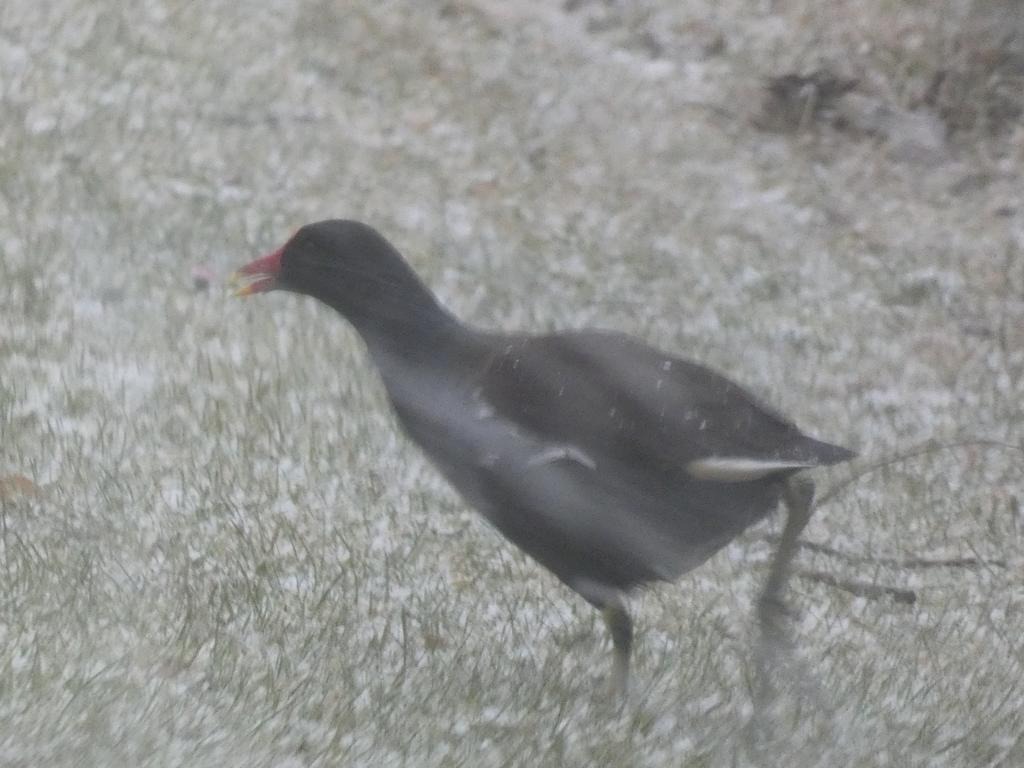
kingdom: Animalia
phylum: Chordata
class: Aves
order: Gruiformes
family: Rallidae
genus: Gallinula
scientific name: Gallinula chloropus
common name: Grønbenet rørhøne
